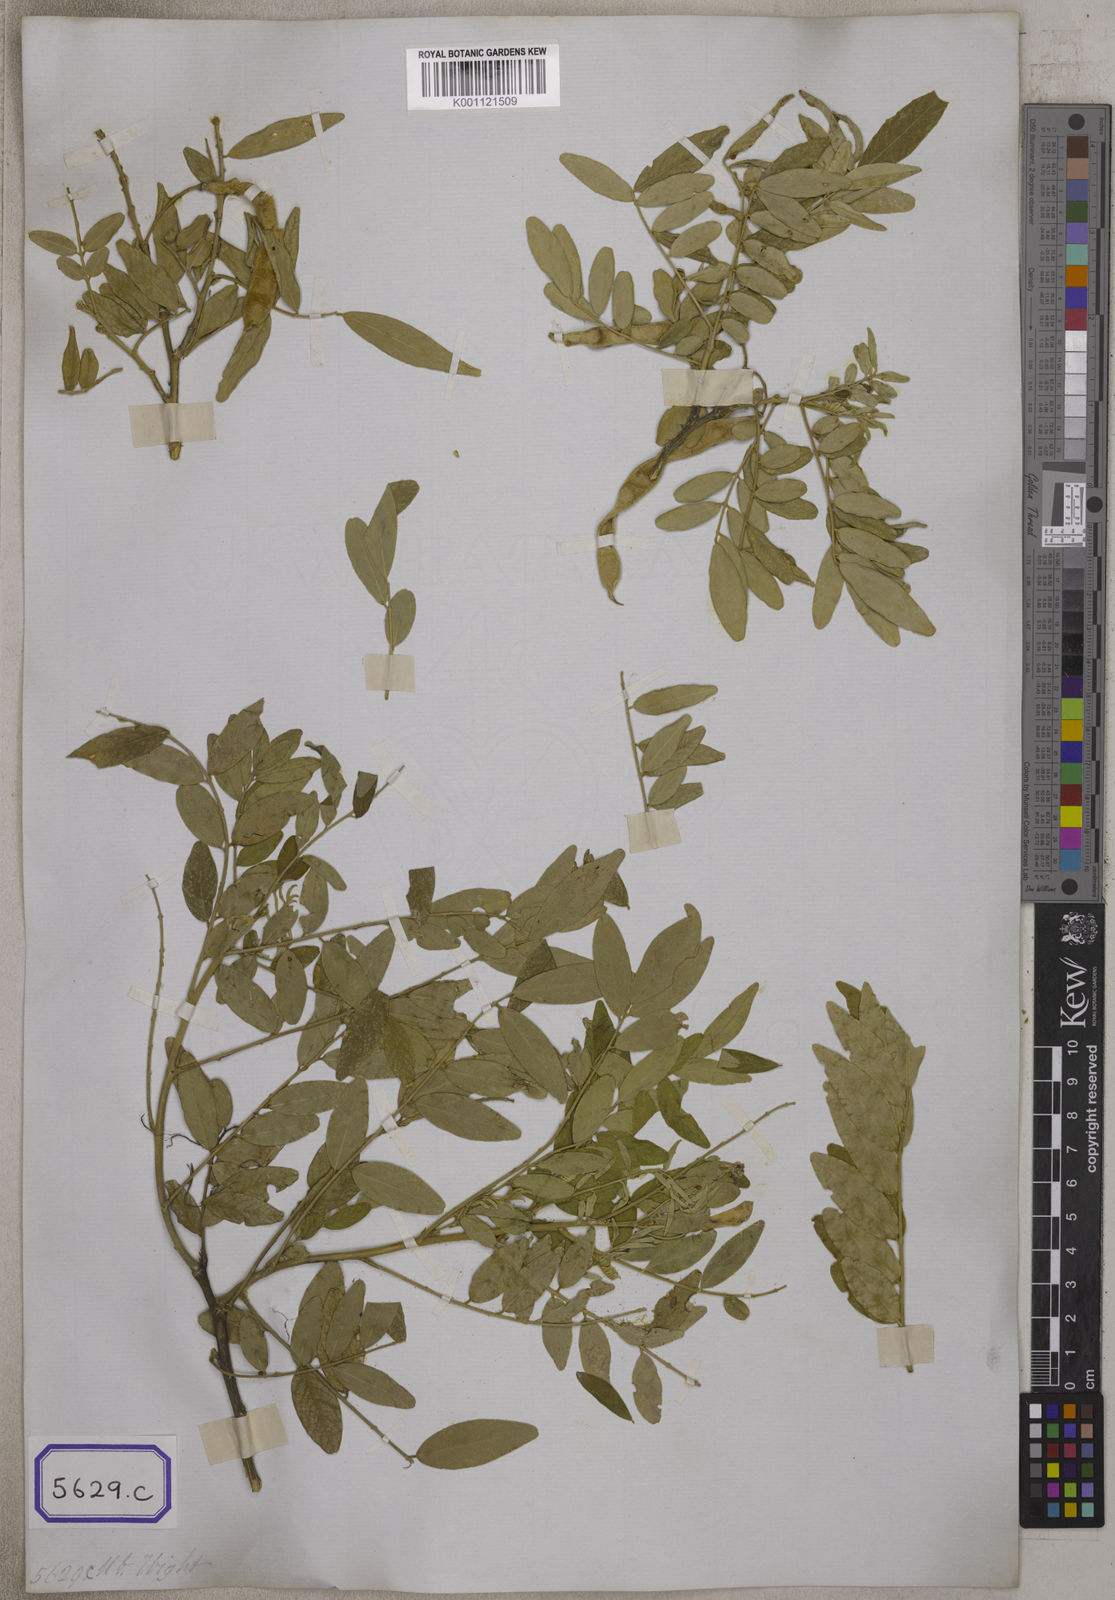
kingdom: Plantae
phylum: Tracheophyta
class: Magnoliopsida
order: Fabales
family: Fabaceae
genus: Mundulea
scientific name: Mundulea sericea
